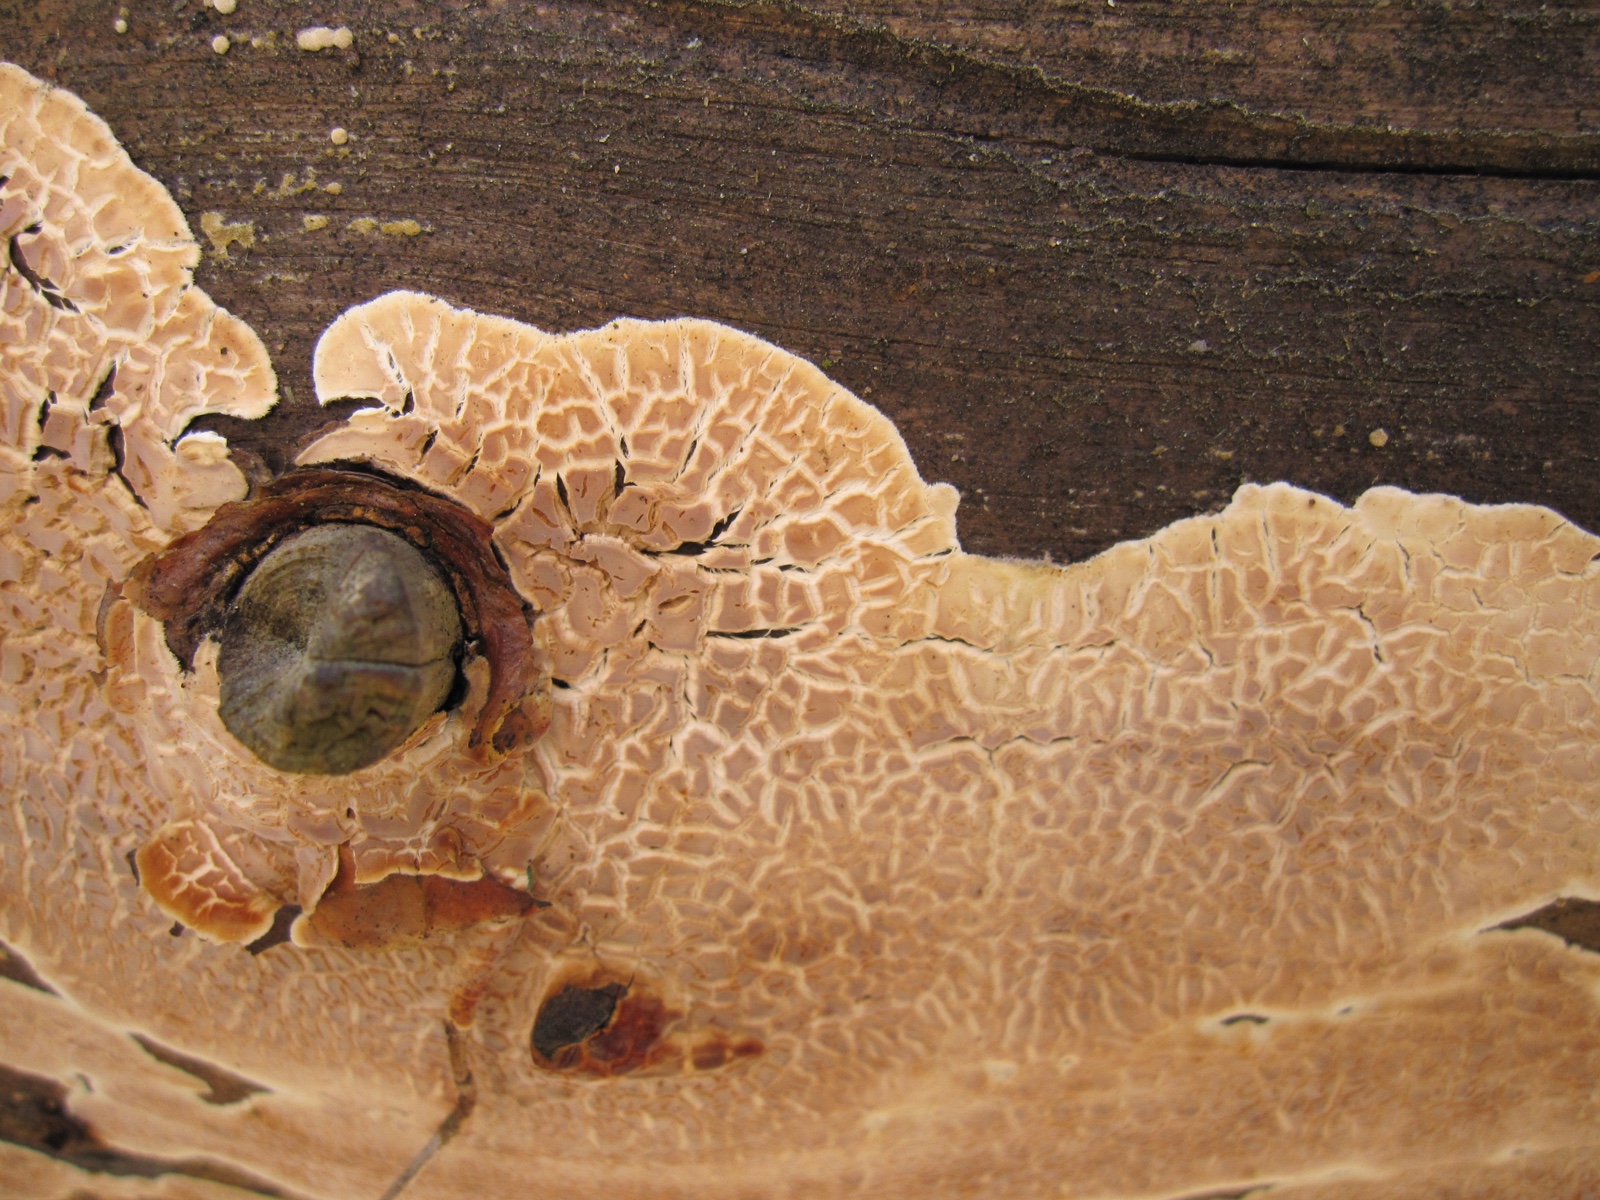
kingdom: Fungi
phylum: Basidiomycota
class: Agaricomycetes
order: Polyporales
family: Dacryobolaceae
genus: Dacryobolus
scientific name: Dacryobolus karstenii
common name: glat vulkanskorpe
